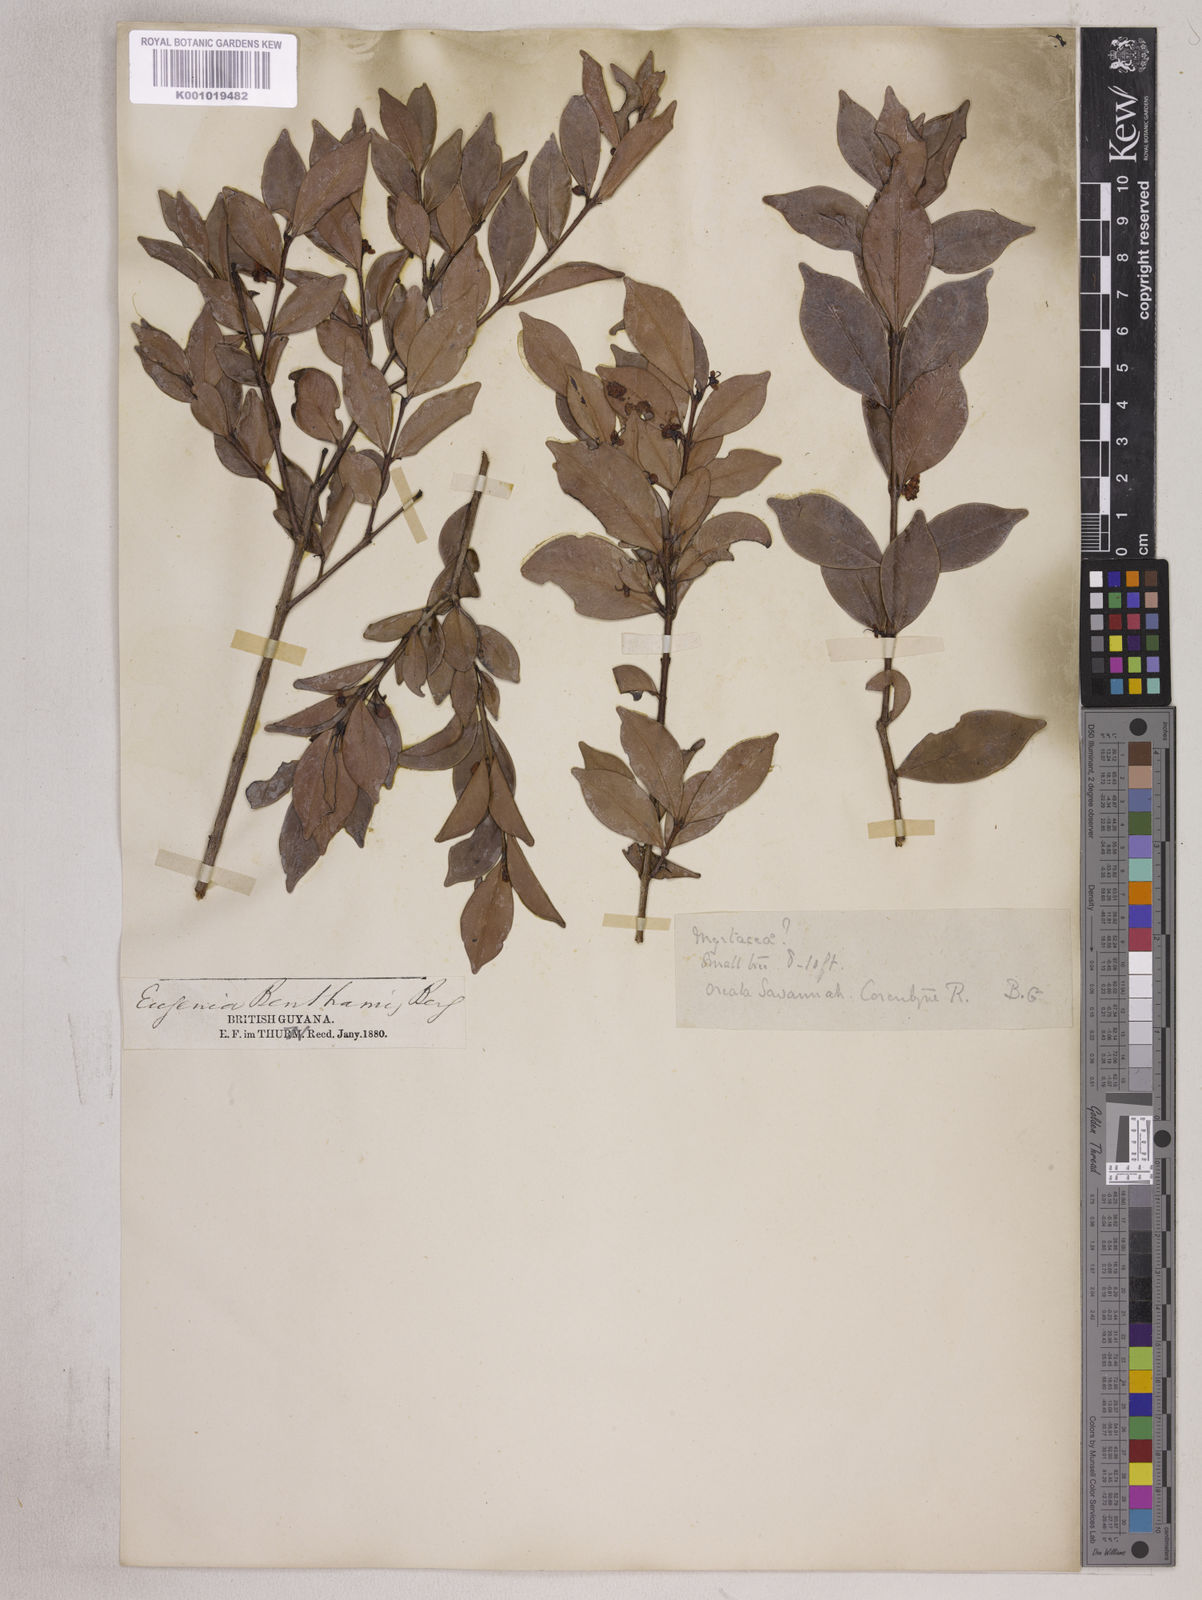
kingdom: Plantae
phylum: Tracheophyta
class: Magnoliopsida
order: Myrtales
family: Myrtaceae
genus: Eugenia
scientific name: Eugenia punicifolia
